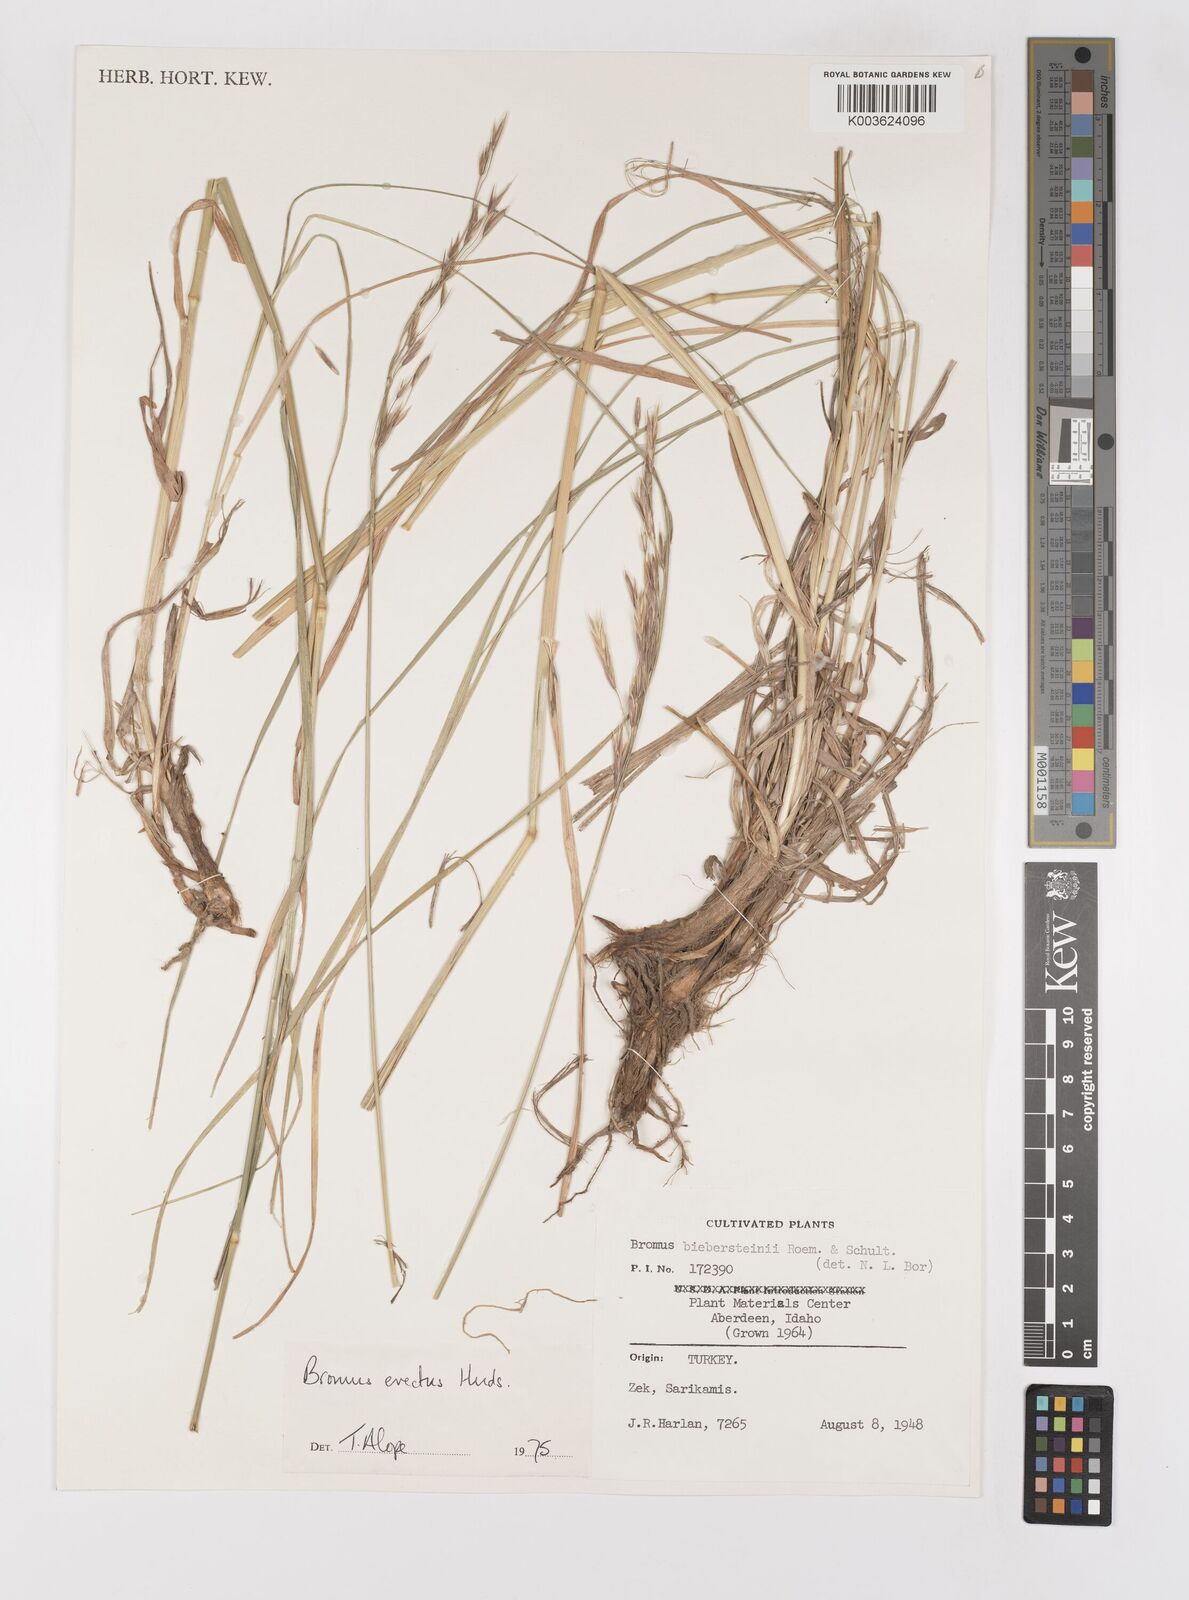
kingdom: Plantae
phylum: Tracheophyta
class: Liliopsida
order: Poales
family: Poaceae
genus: Bromus
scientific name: Bromus erectus
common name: Erect brome
